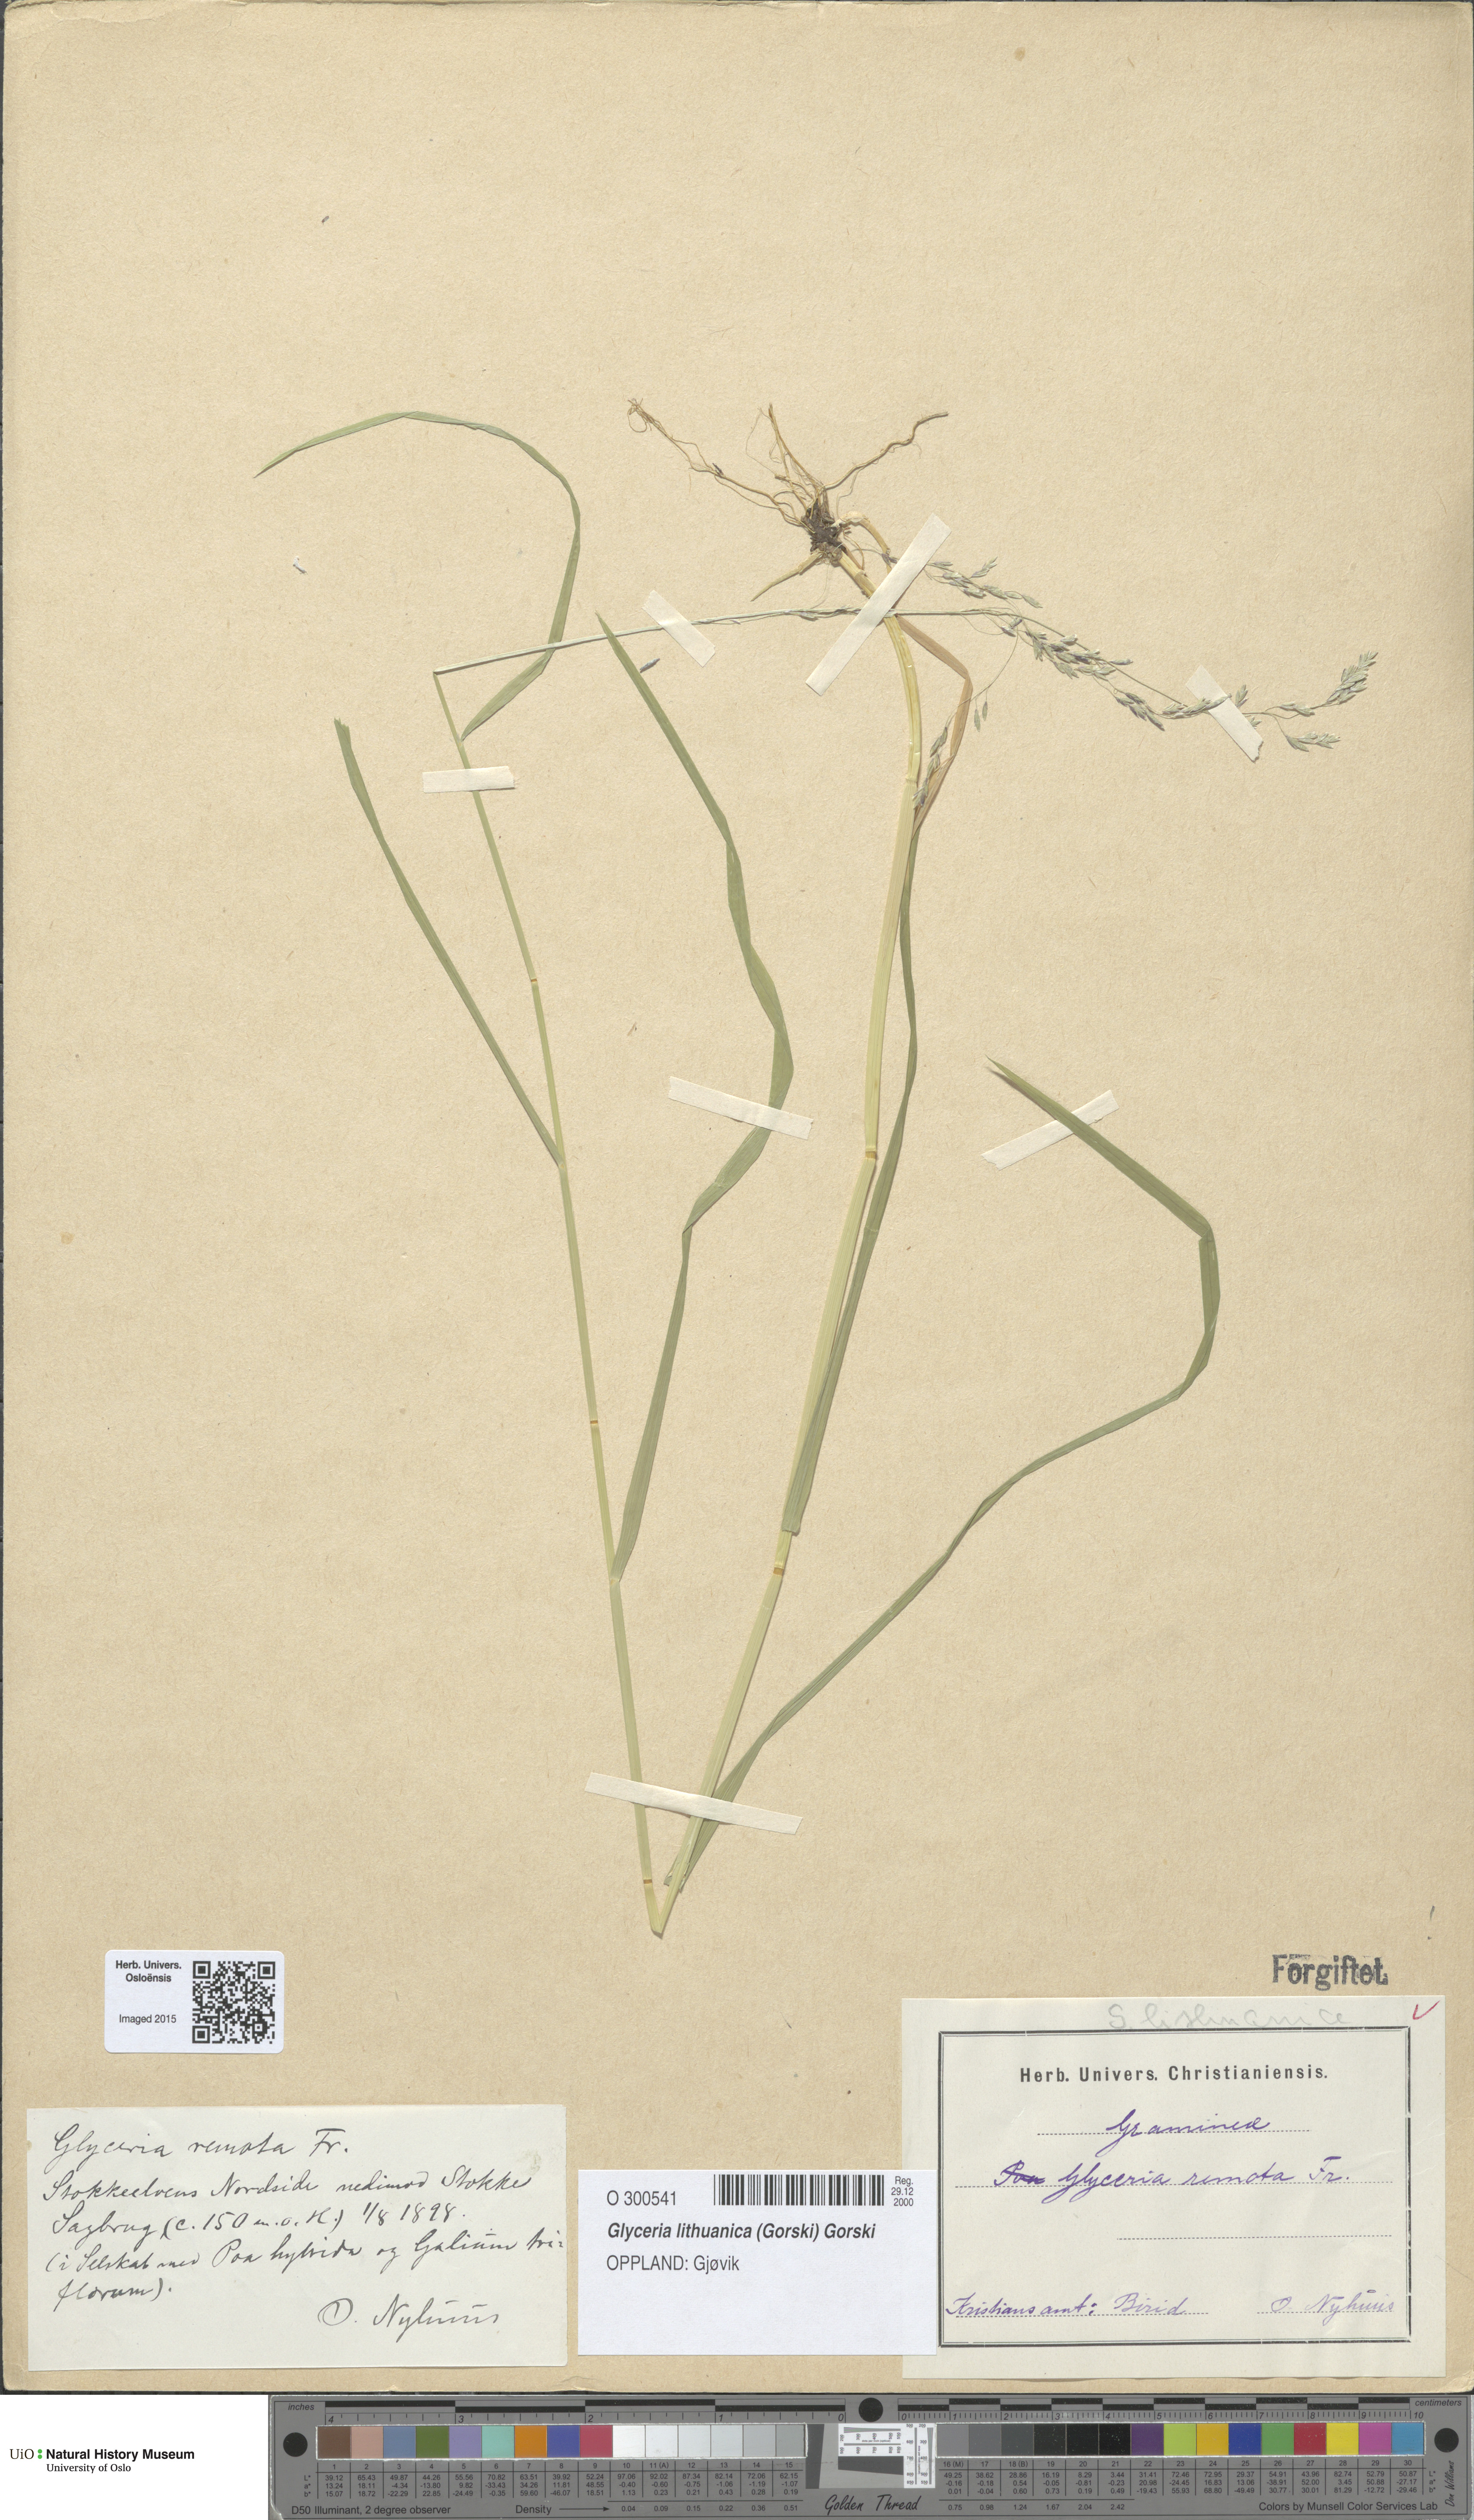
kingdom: Plantae
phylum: Tracheophyta
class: Liliopsida
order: Poales
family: Poaceae
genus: Glyceria
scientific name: Glyceria lithuanica
